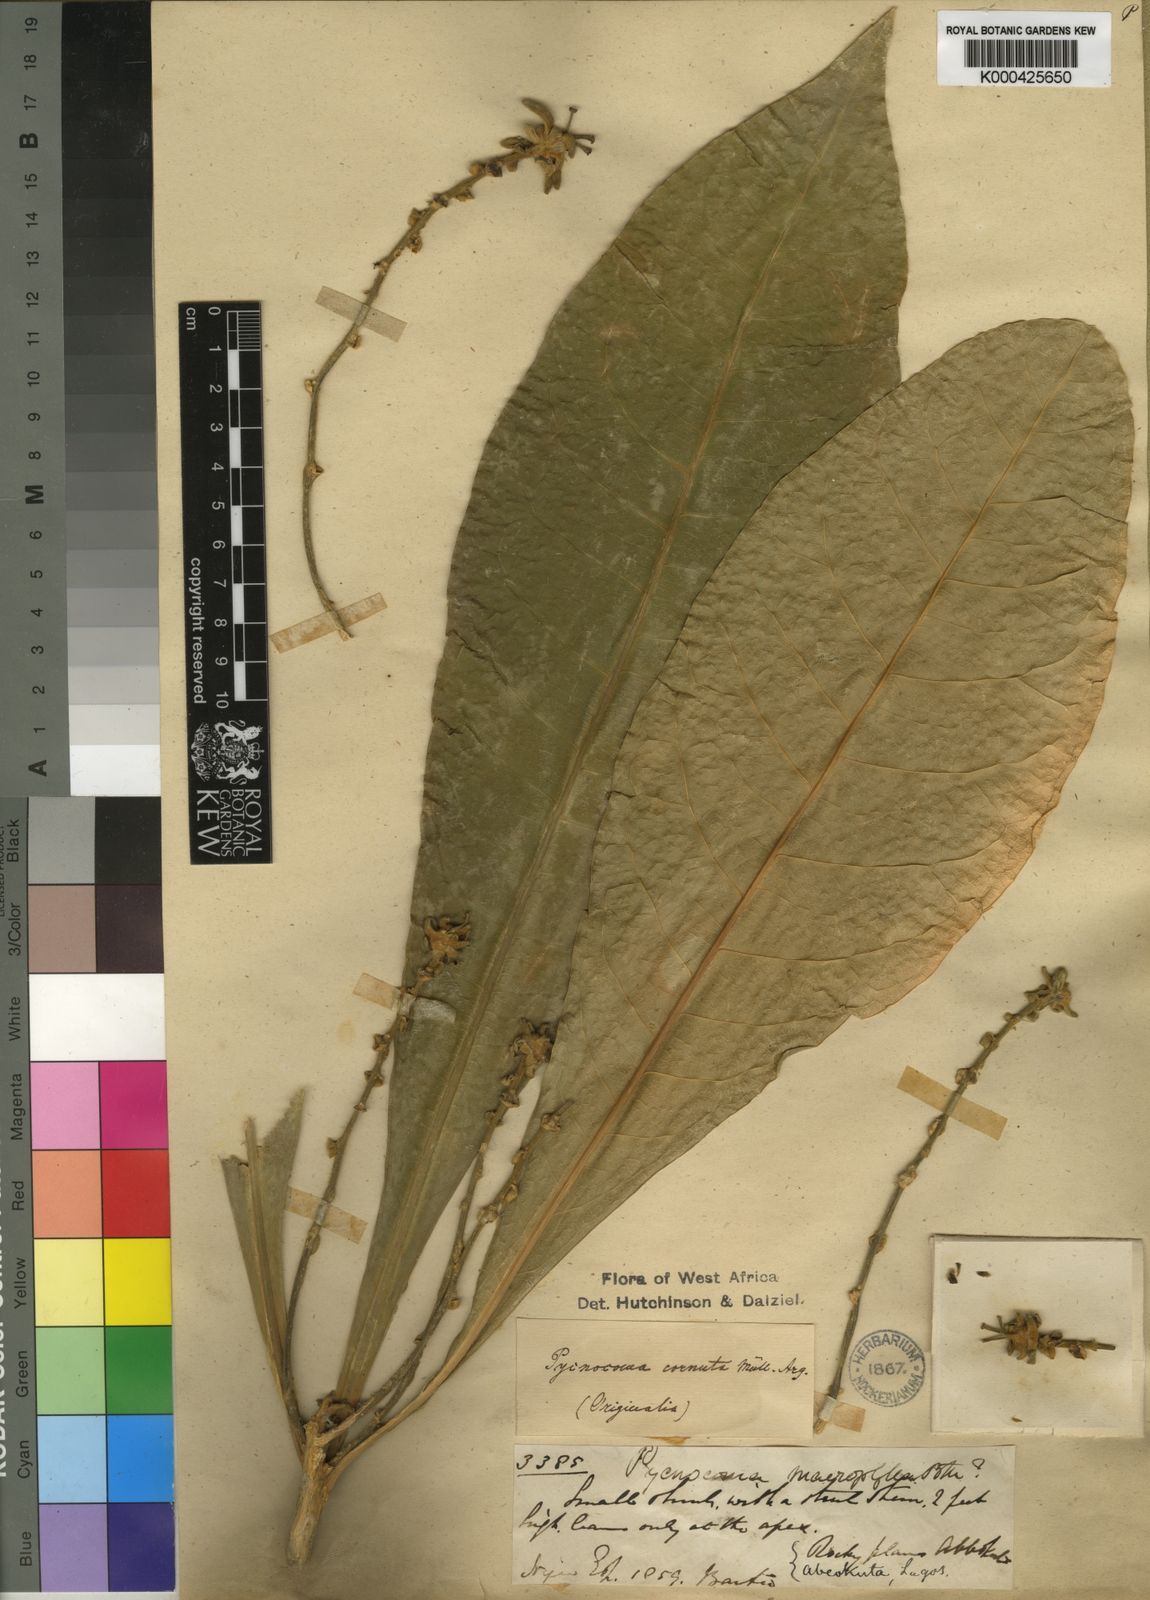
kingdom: Plantae
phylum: Tracheophyta
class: Magnoliopsida
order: Malpighiales
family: Euphorbiaceae
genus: Pycnocoma
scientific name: Pycnocoma
